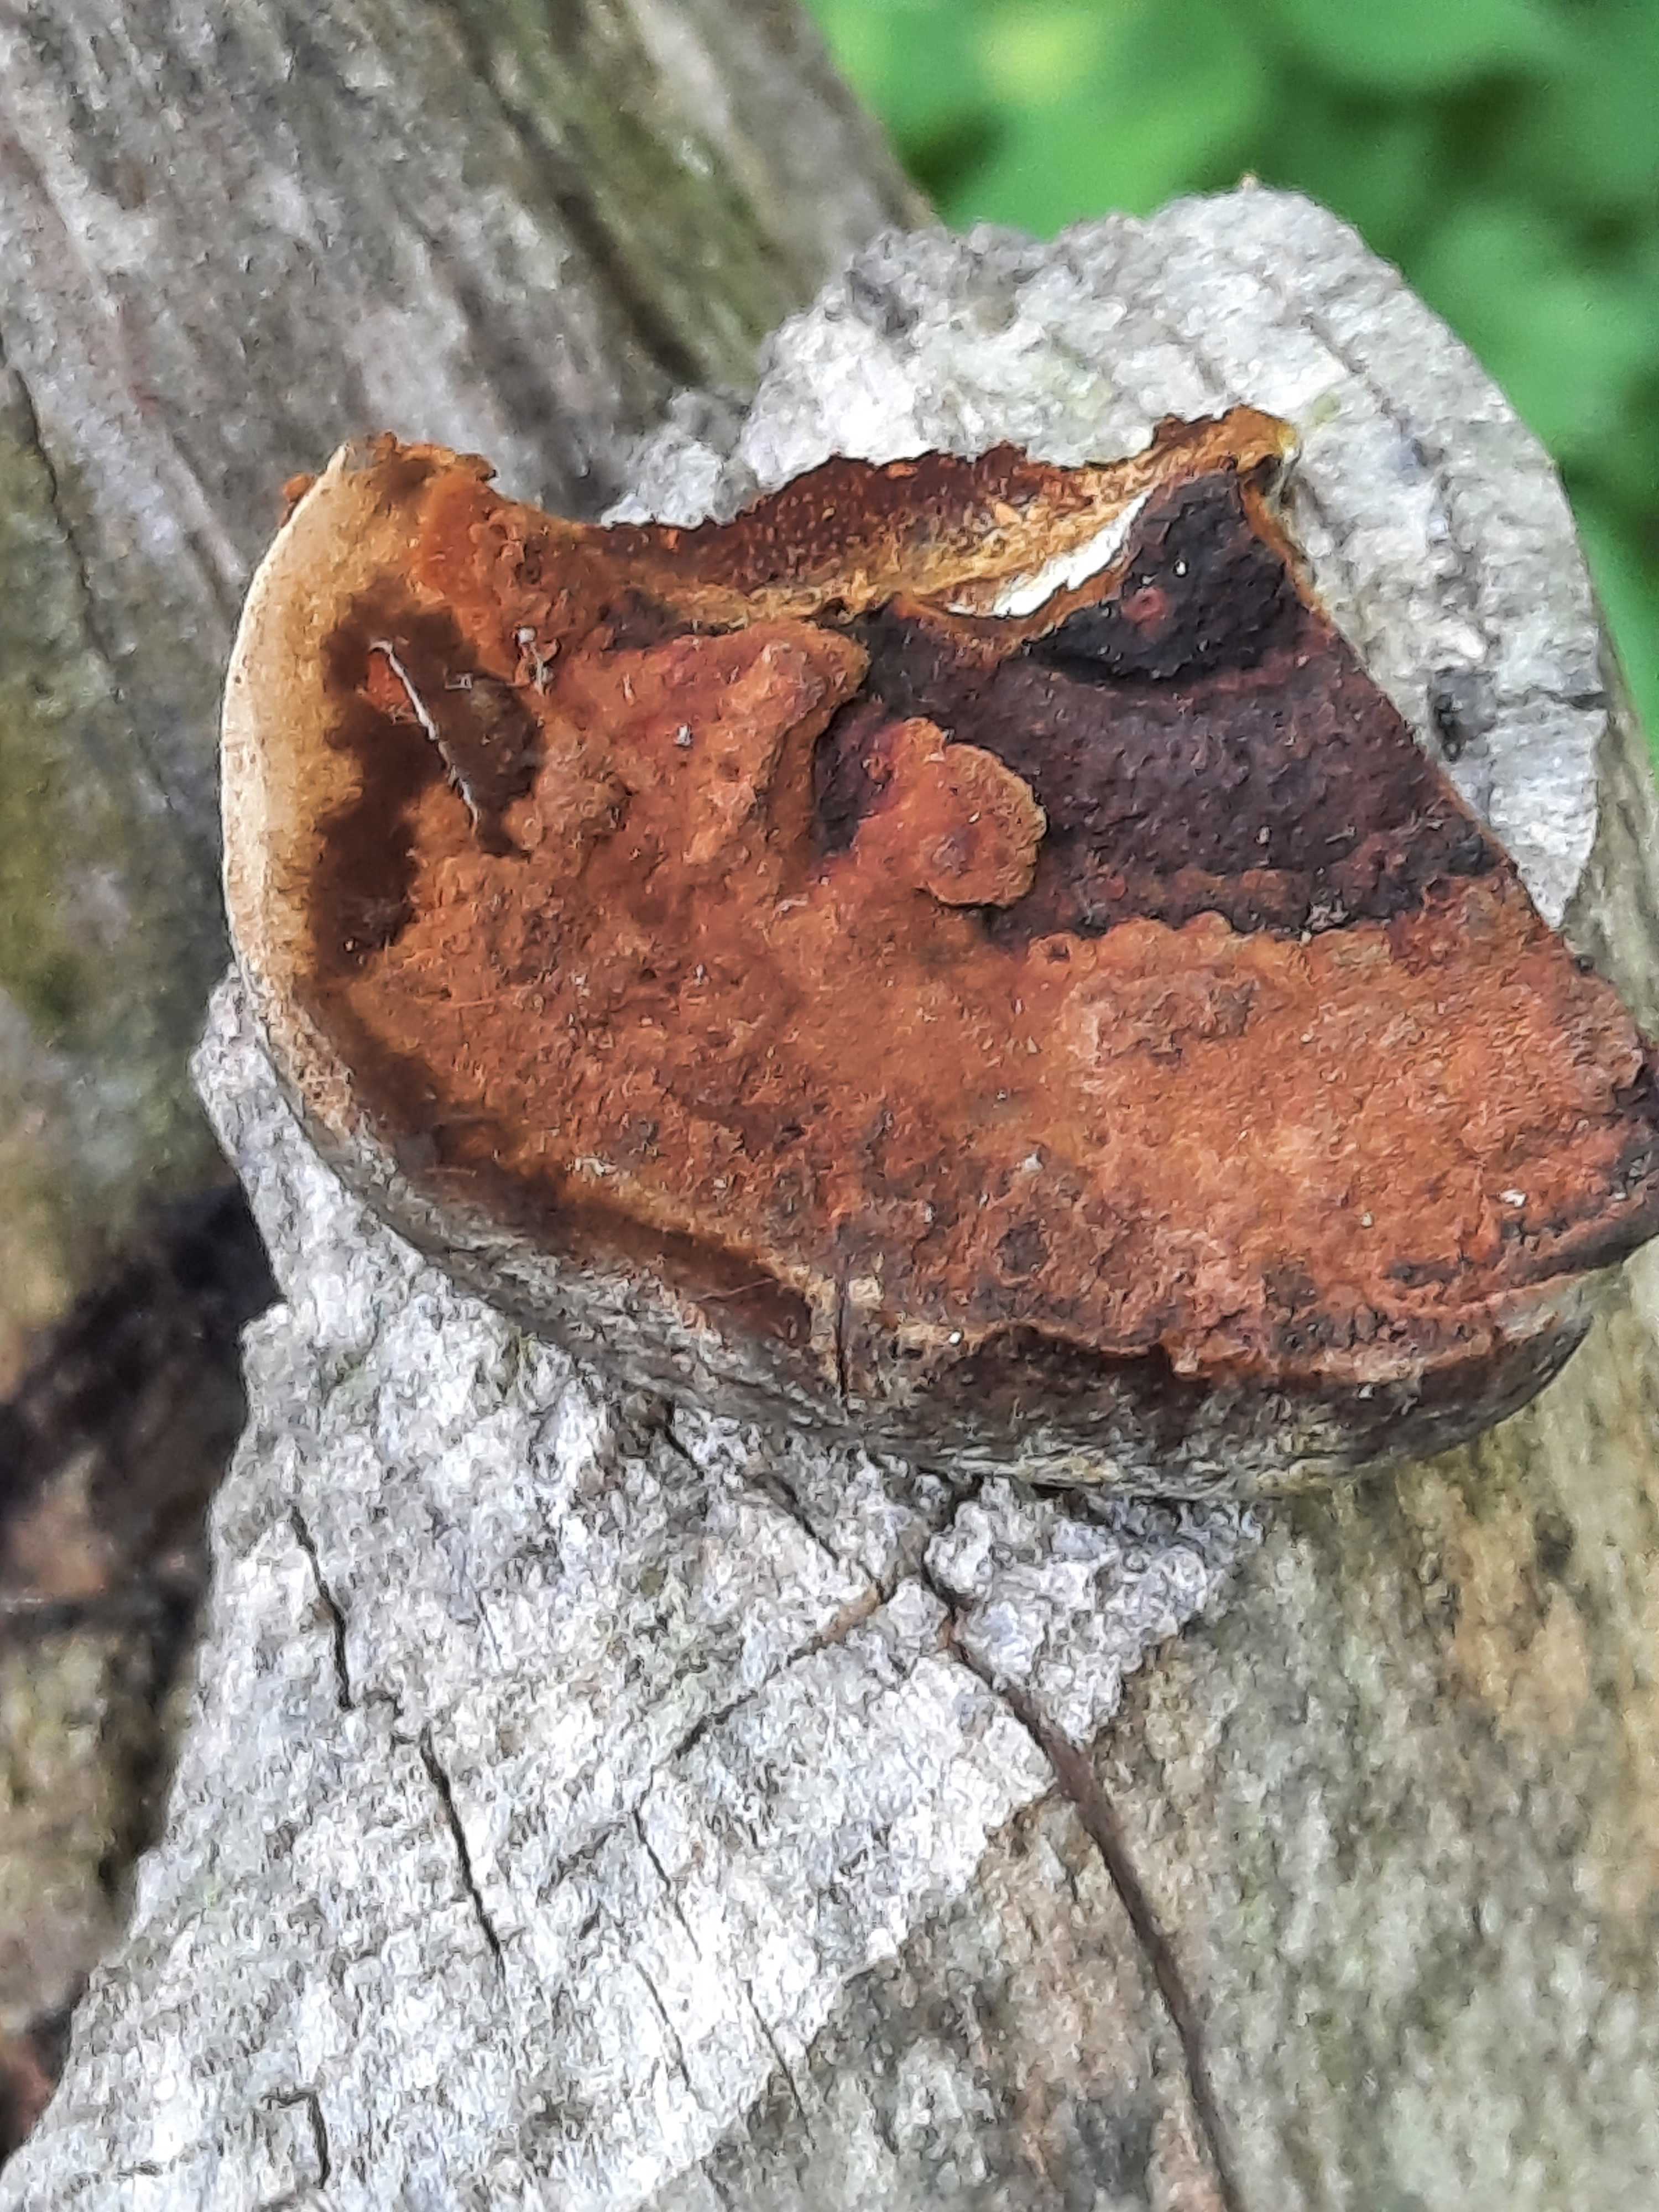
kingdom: Fungi
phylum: Basidiomycota
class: Agaricomycetes
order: Hymenochaetales
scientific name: Hymenochaetales
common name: børstesvampordenen
